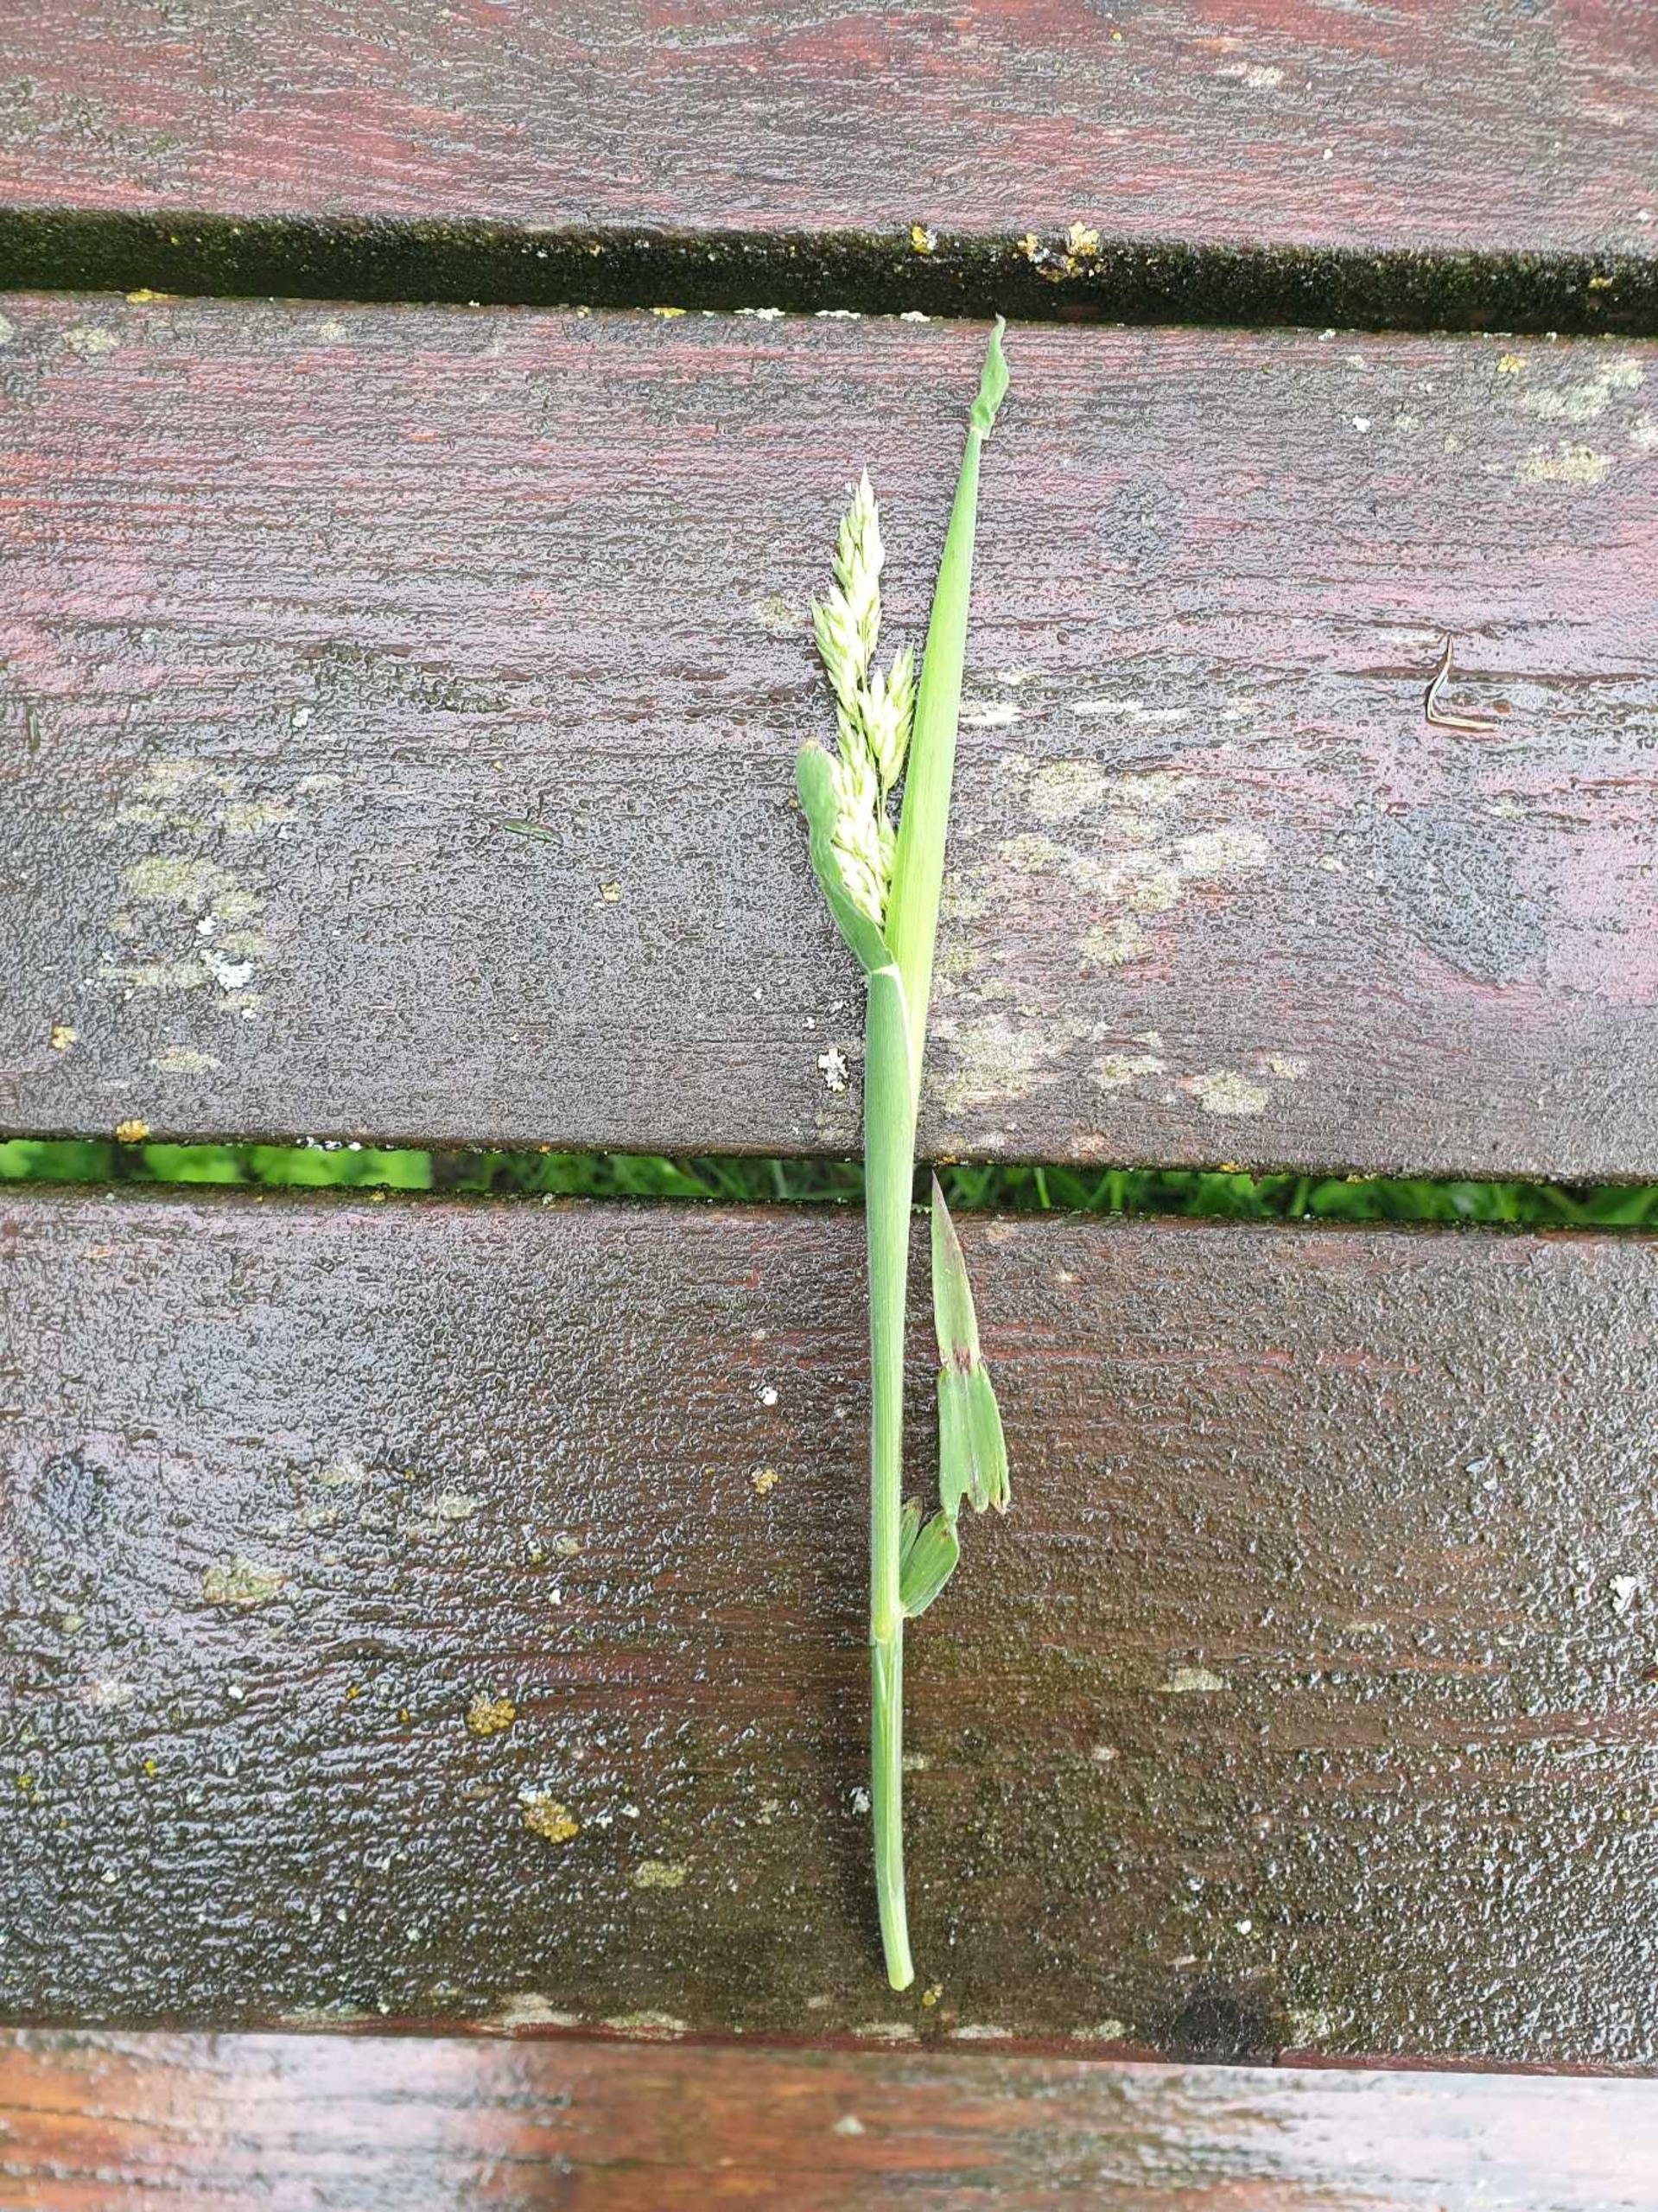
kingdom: Plantae
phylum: Tracheophyta
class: Liliopsida
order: Poales
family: Poaceae
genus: Holcus
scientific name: Holcus lanatus
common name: Fløjlsgræs
